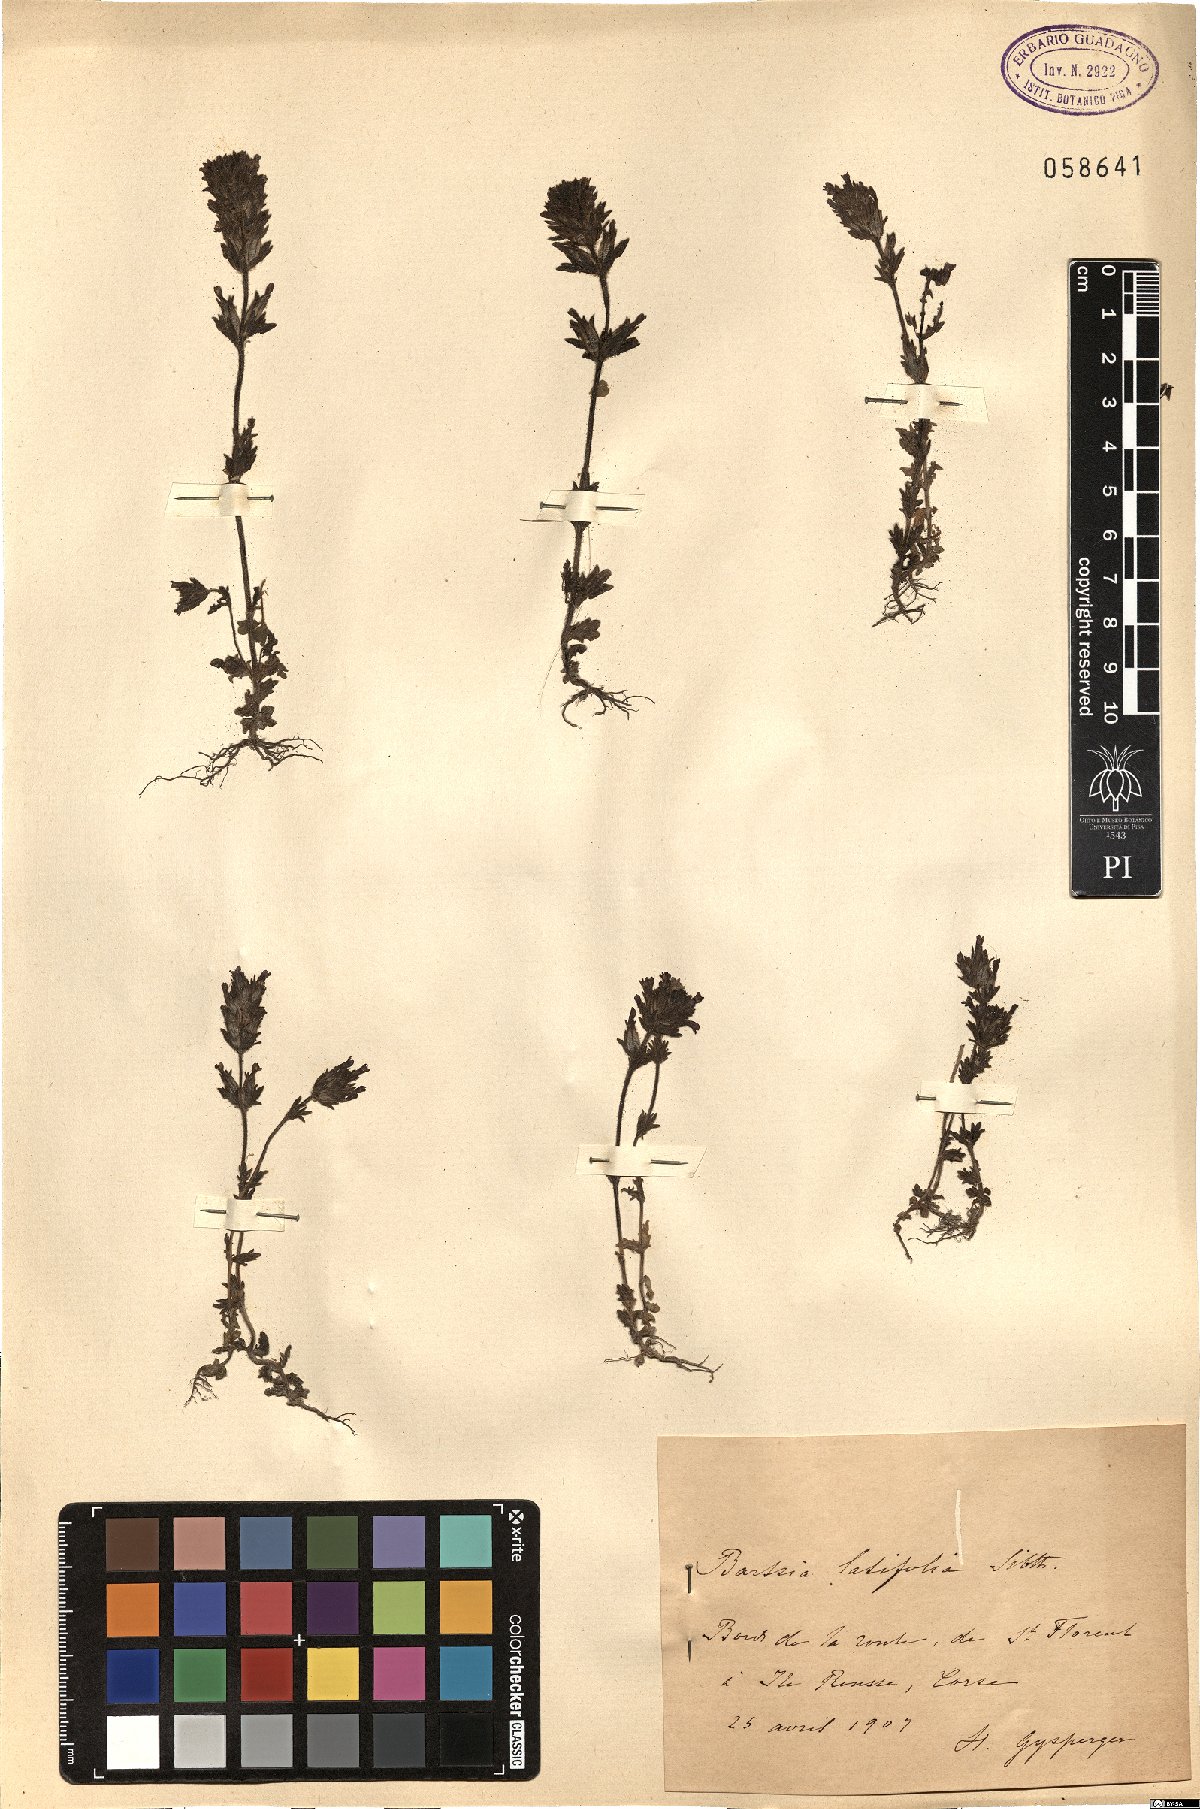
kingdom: Plantae
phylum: Tracheophyta
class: Magnoliopsida
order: Lamiales
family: Orobanchaceae
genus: Parentucellia
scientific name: Parentucellia latifolia
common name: Broadleaf glandweed
